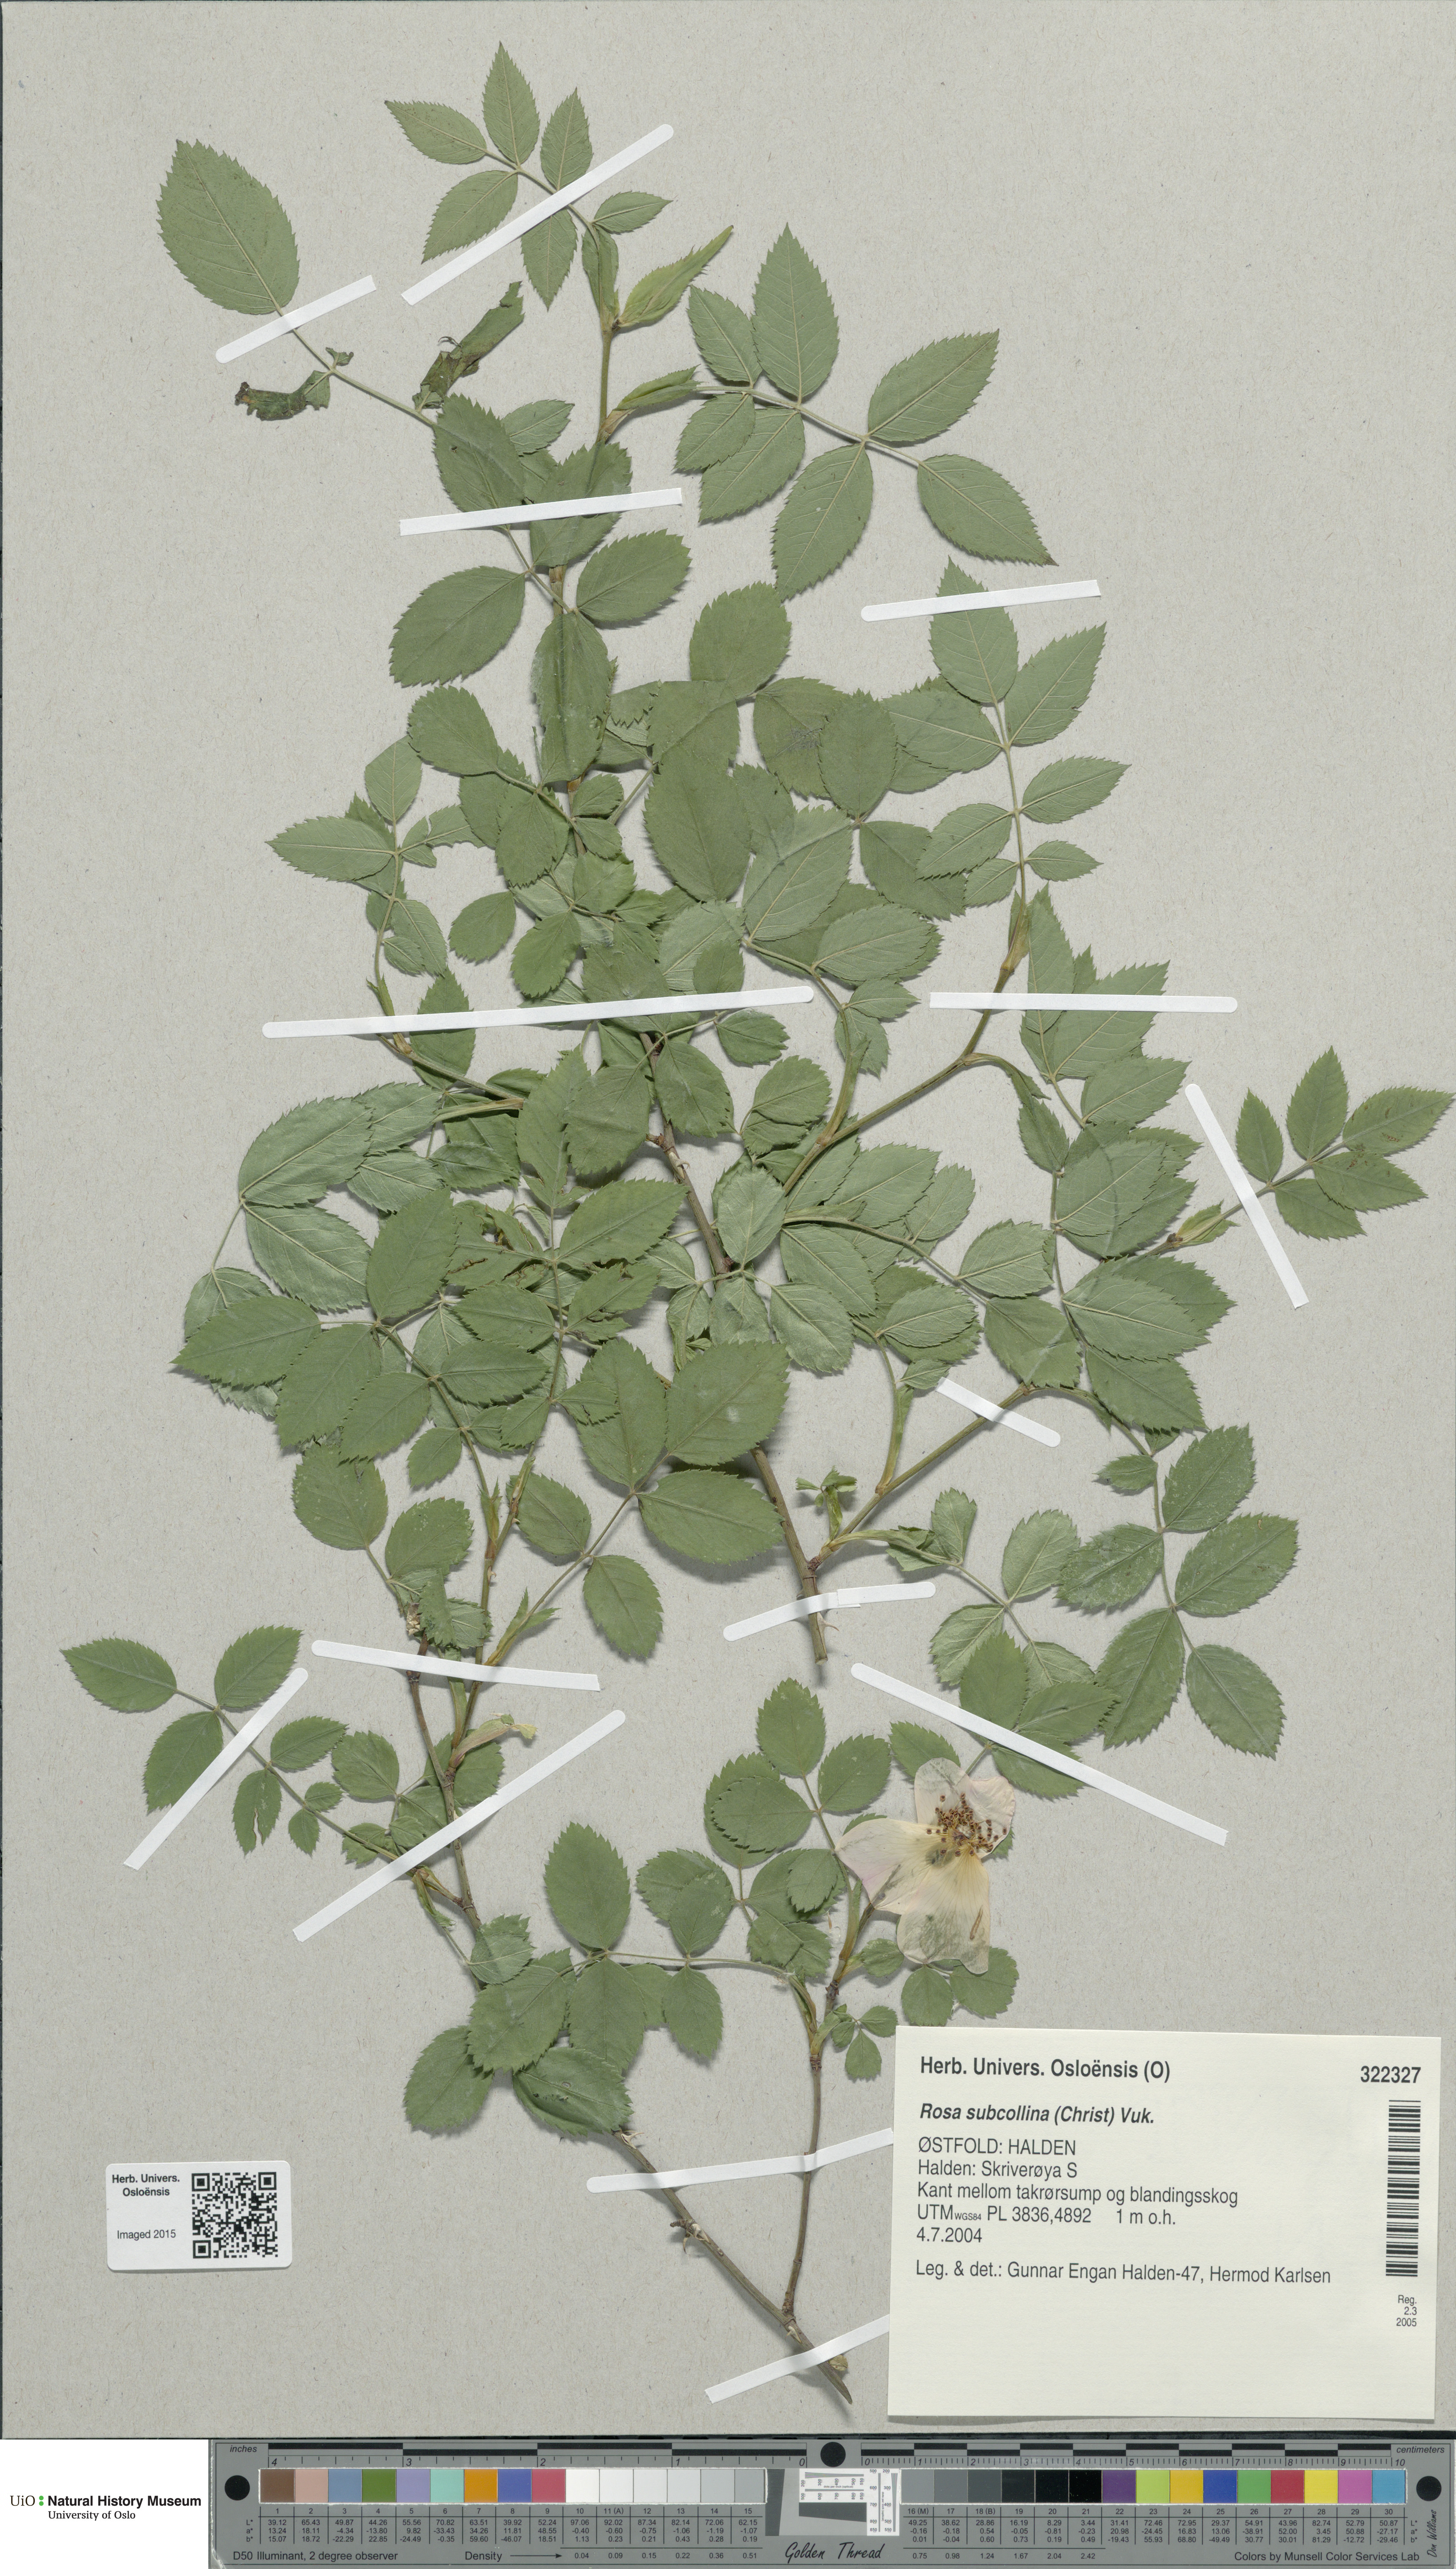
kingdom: Plantae
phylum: Tracheophyta
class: Magnoliopsida
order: Rosales
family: Rosaceae
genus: Rosa
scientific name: Rosa subcollina
